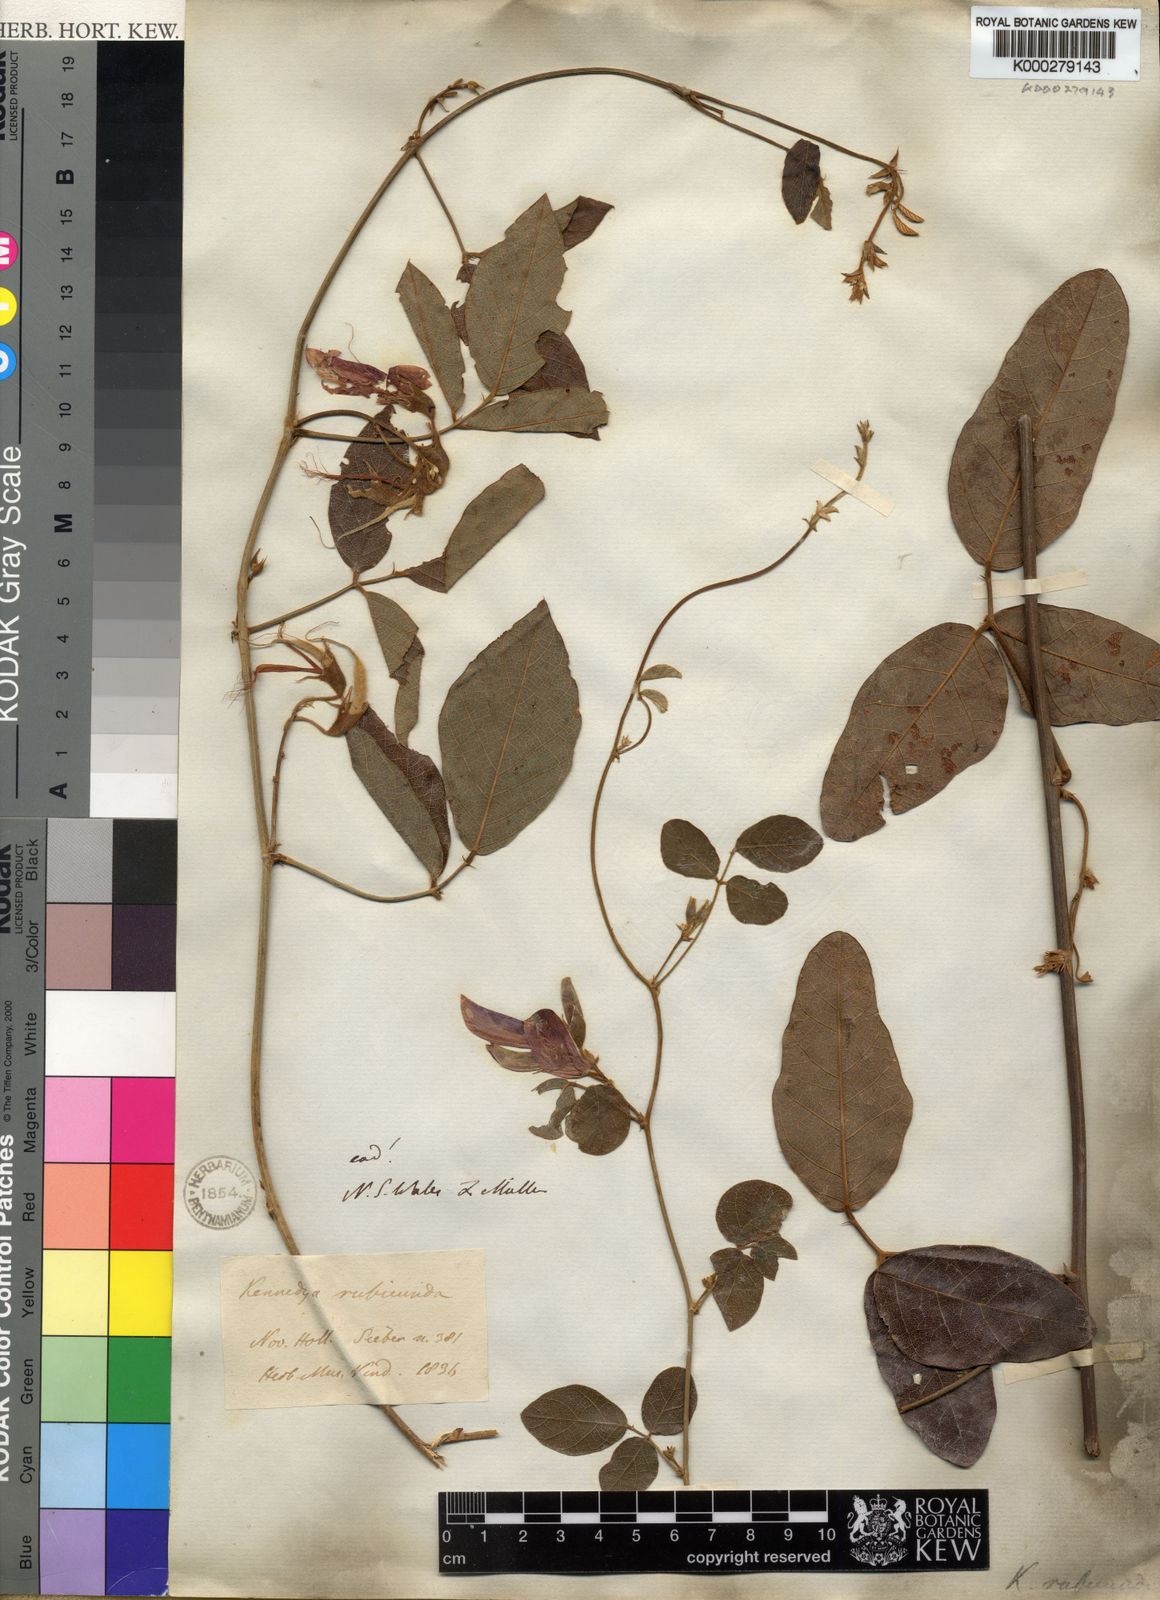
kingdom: Plantae
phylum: Tracheophyta
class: Magnoliopsida
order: Fabales
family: Fabaceae
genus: Kennedia
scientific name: Kennedia rubicunda
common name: Red kennedy-pea
